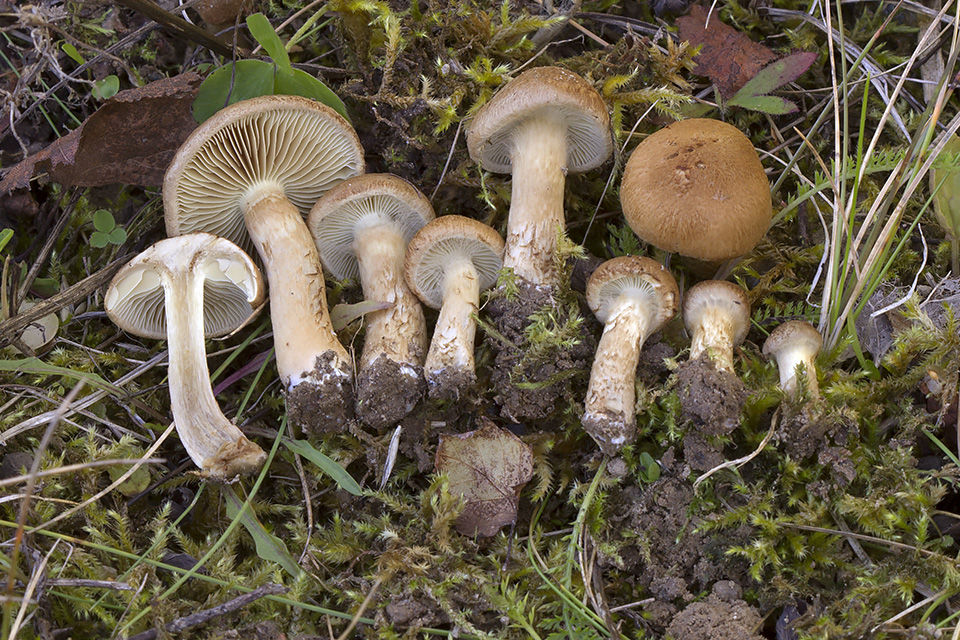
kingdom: Fungi
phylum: Basidiomycota
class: Agaricomycetes
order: Agaricales
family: Inocybaceae
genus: Mallocybe
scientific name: Mallocybe plebeia
